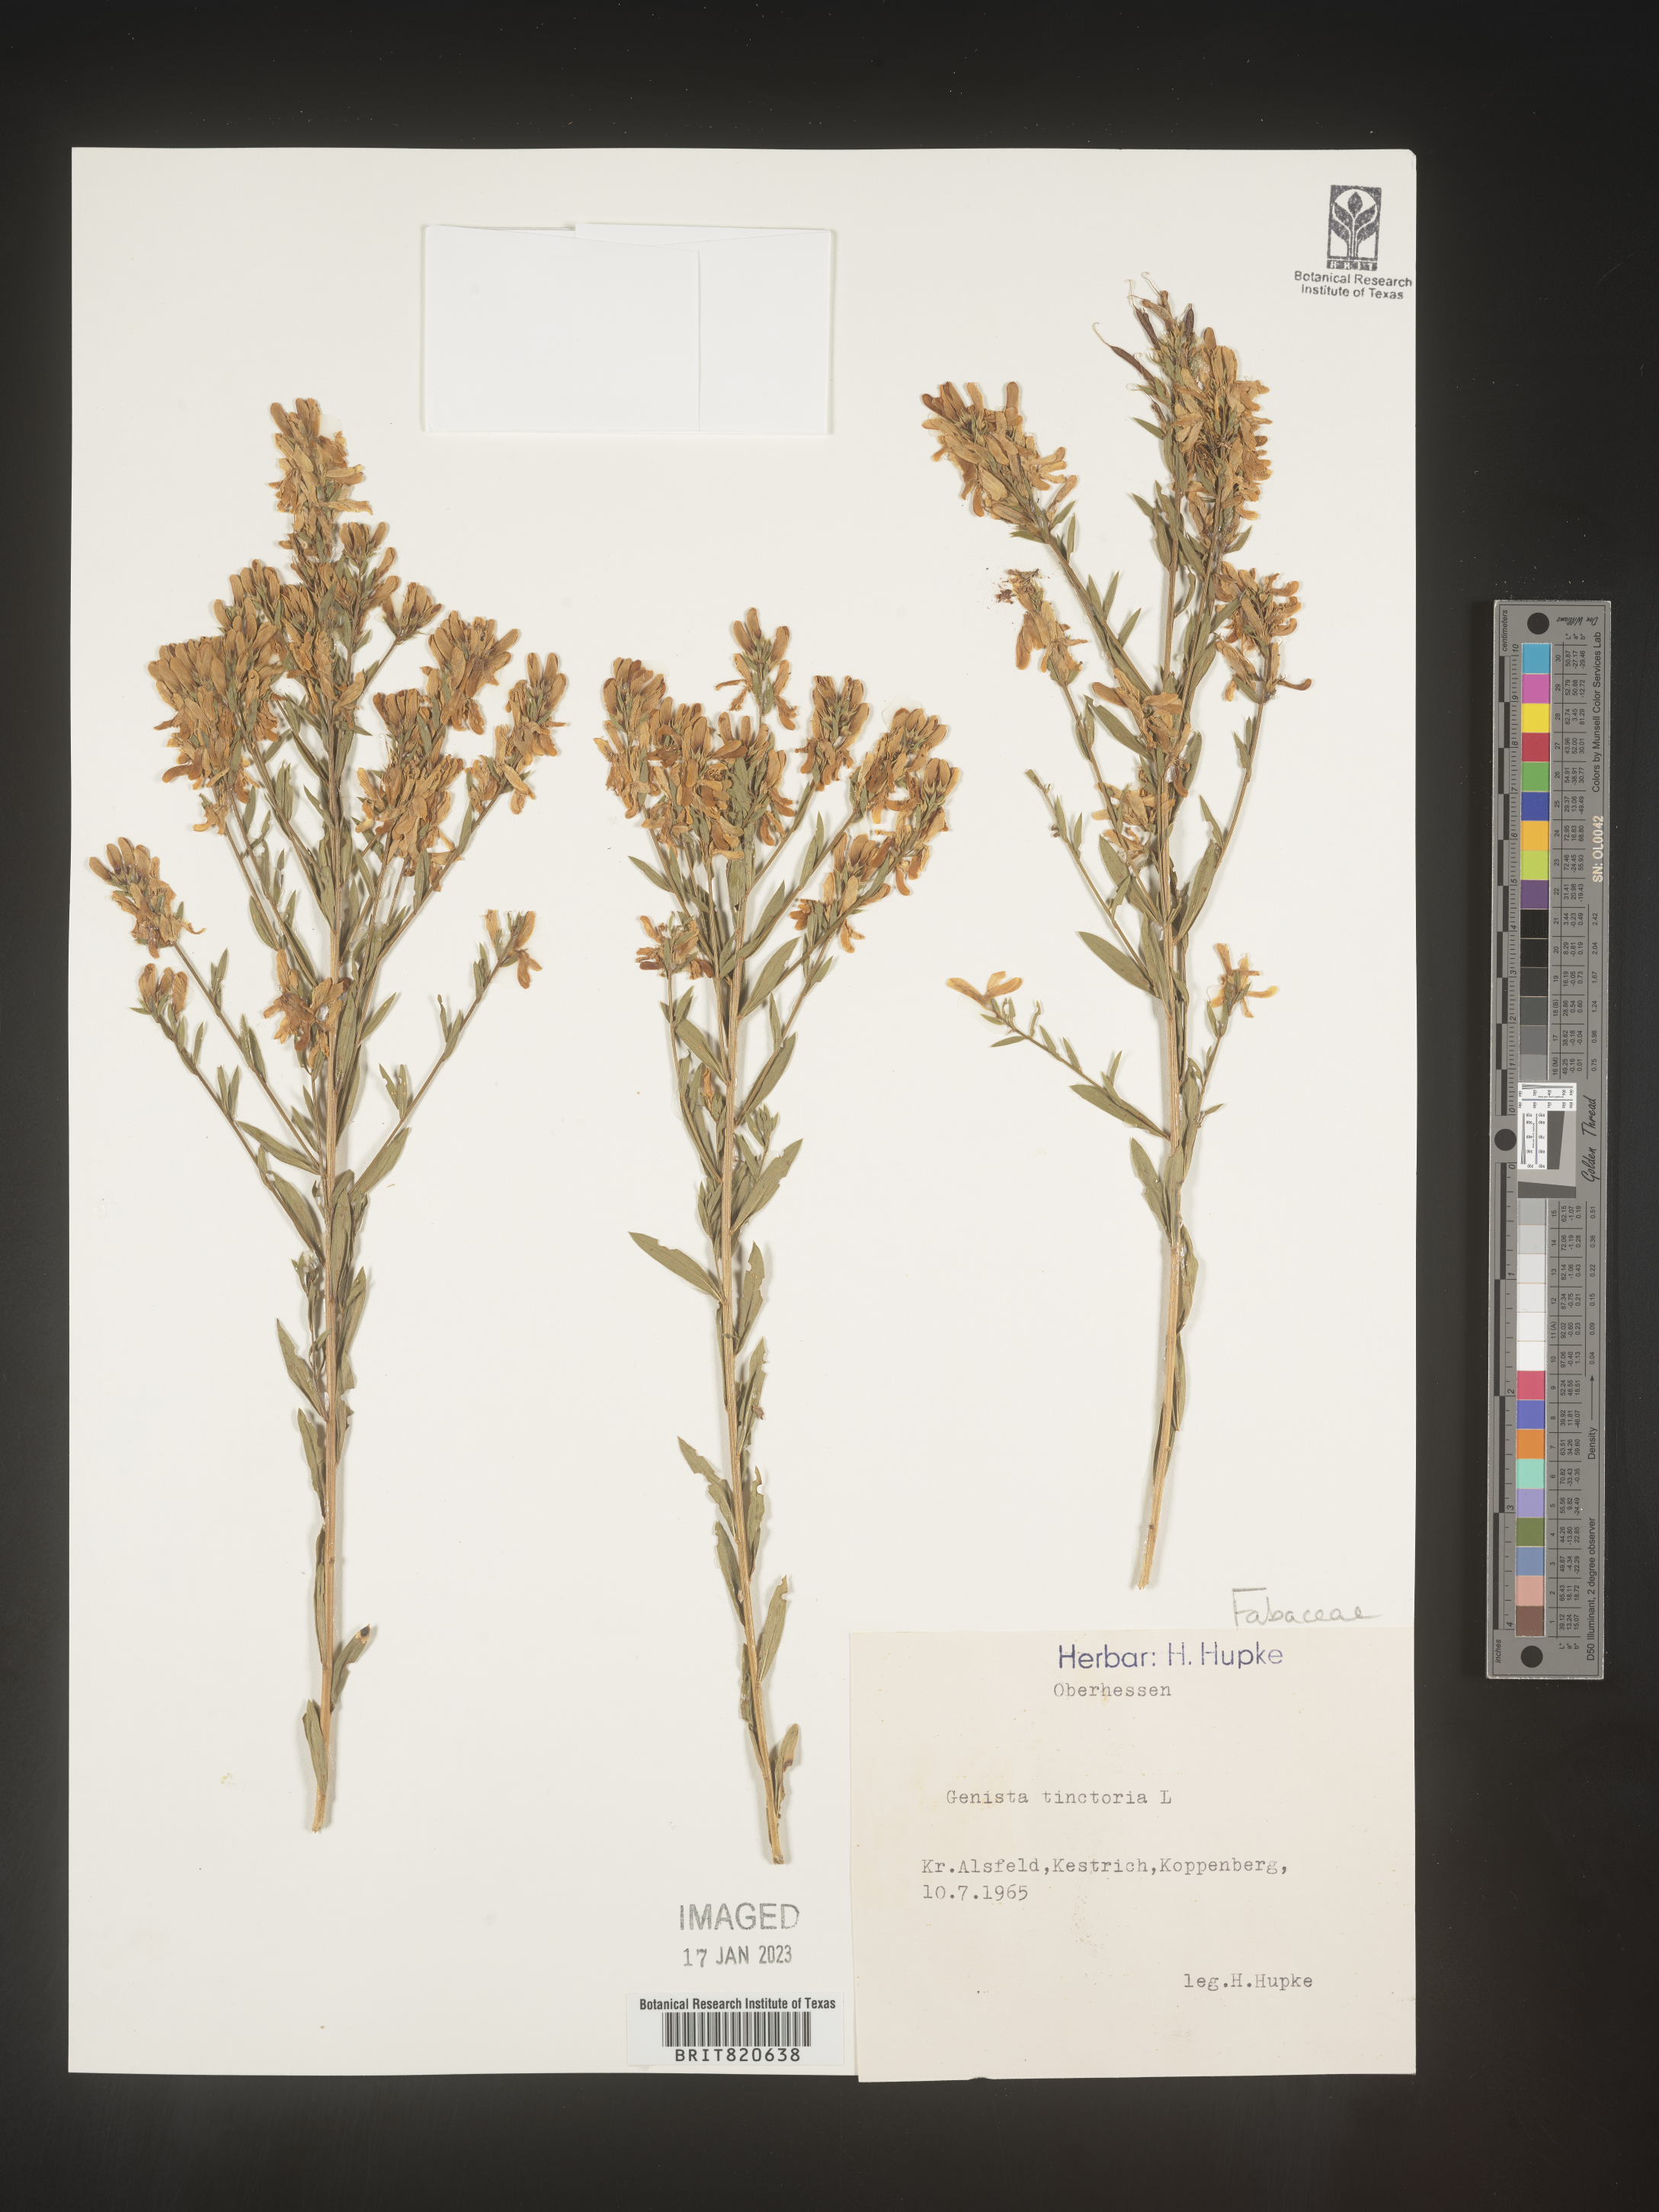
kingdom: Plantae
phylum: Tracheophyta
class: Magnoliopsida
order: Fabales
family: Fabaceae
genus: Genista
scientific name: Genista tinctoria
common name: Dyer's greenweed
